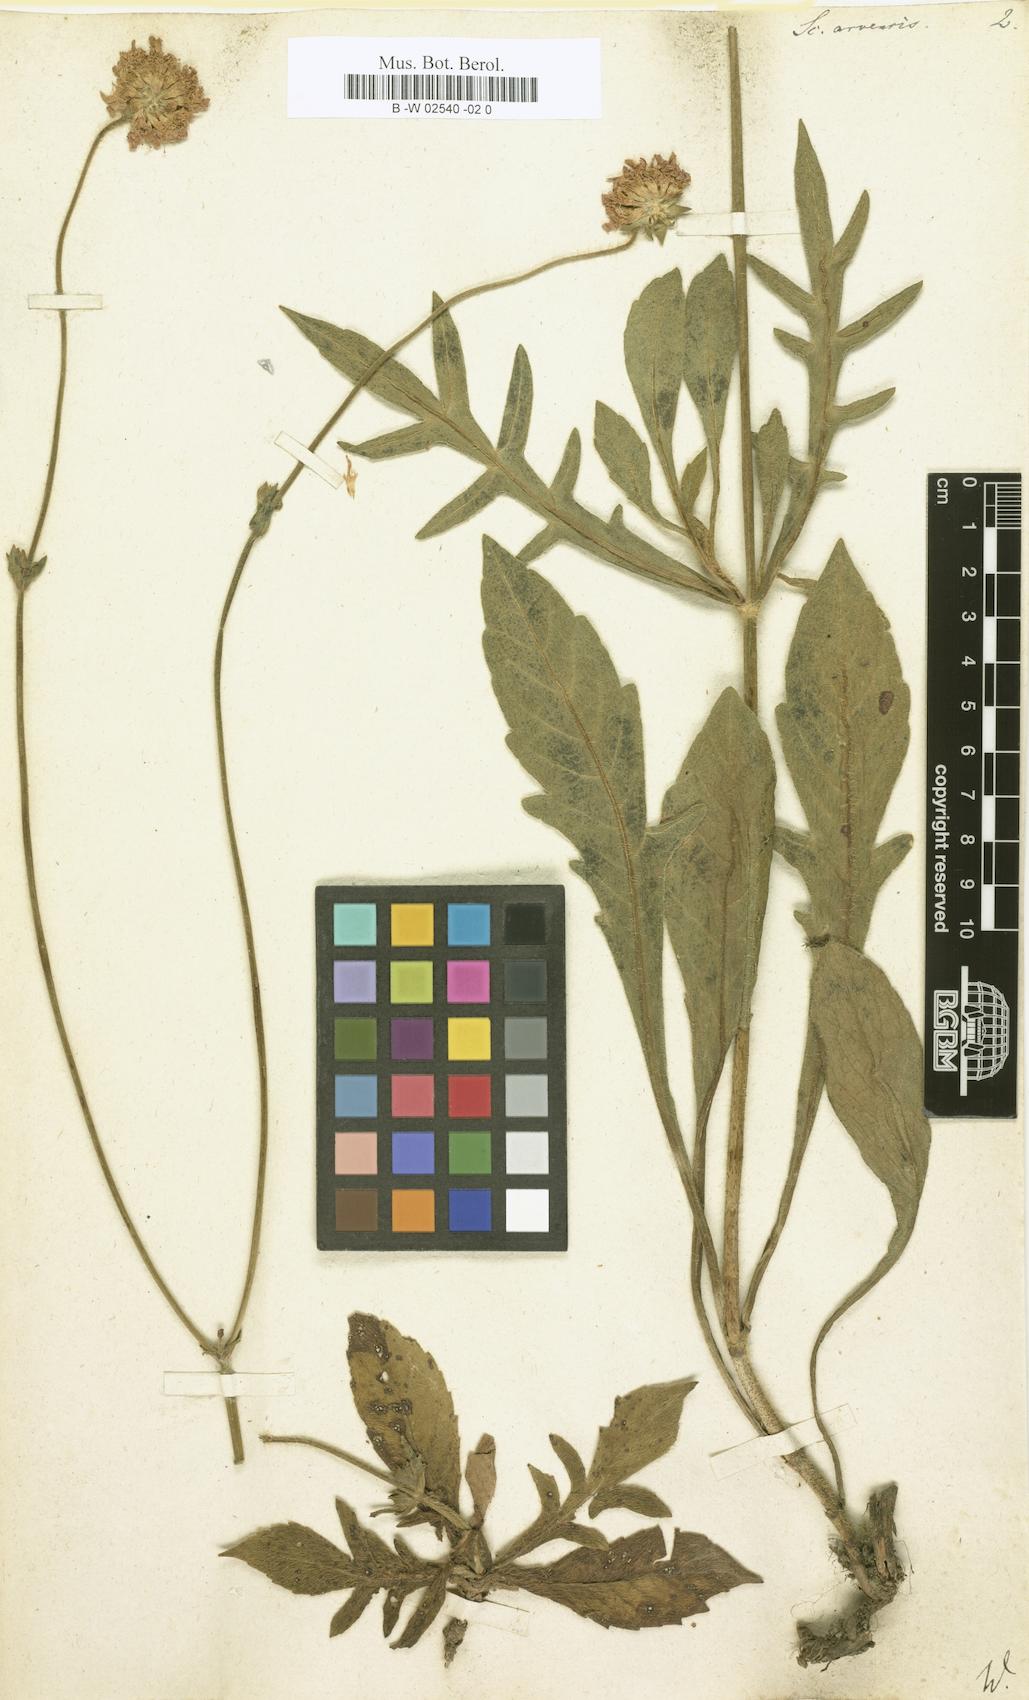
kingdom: Plantae
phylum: Tracheophyta
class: Magnoliopsida
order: Dipsacales
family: Caprifoliaceae
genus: Knautia
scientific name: Knautia arvensis
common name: Field scabiosa
